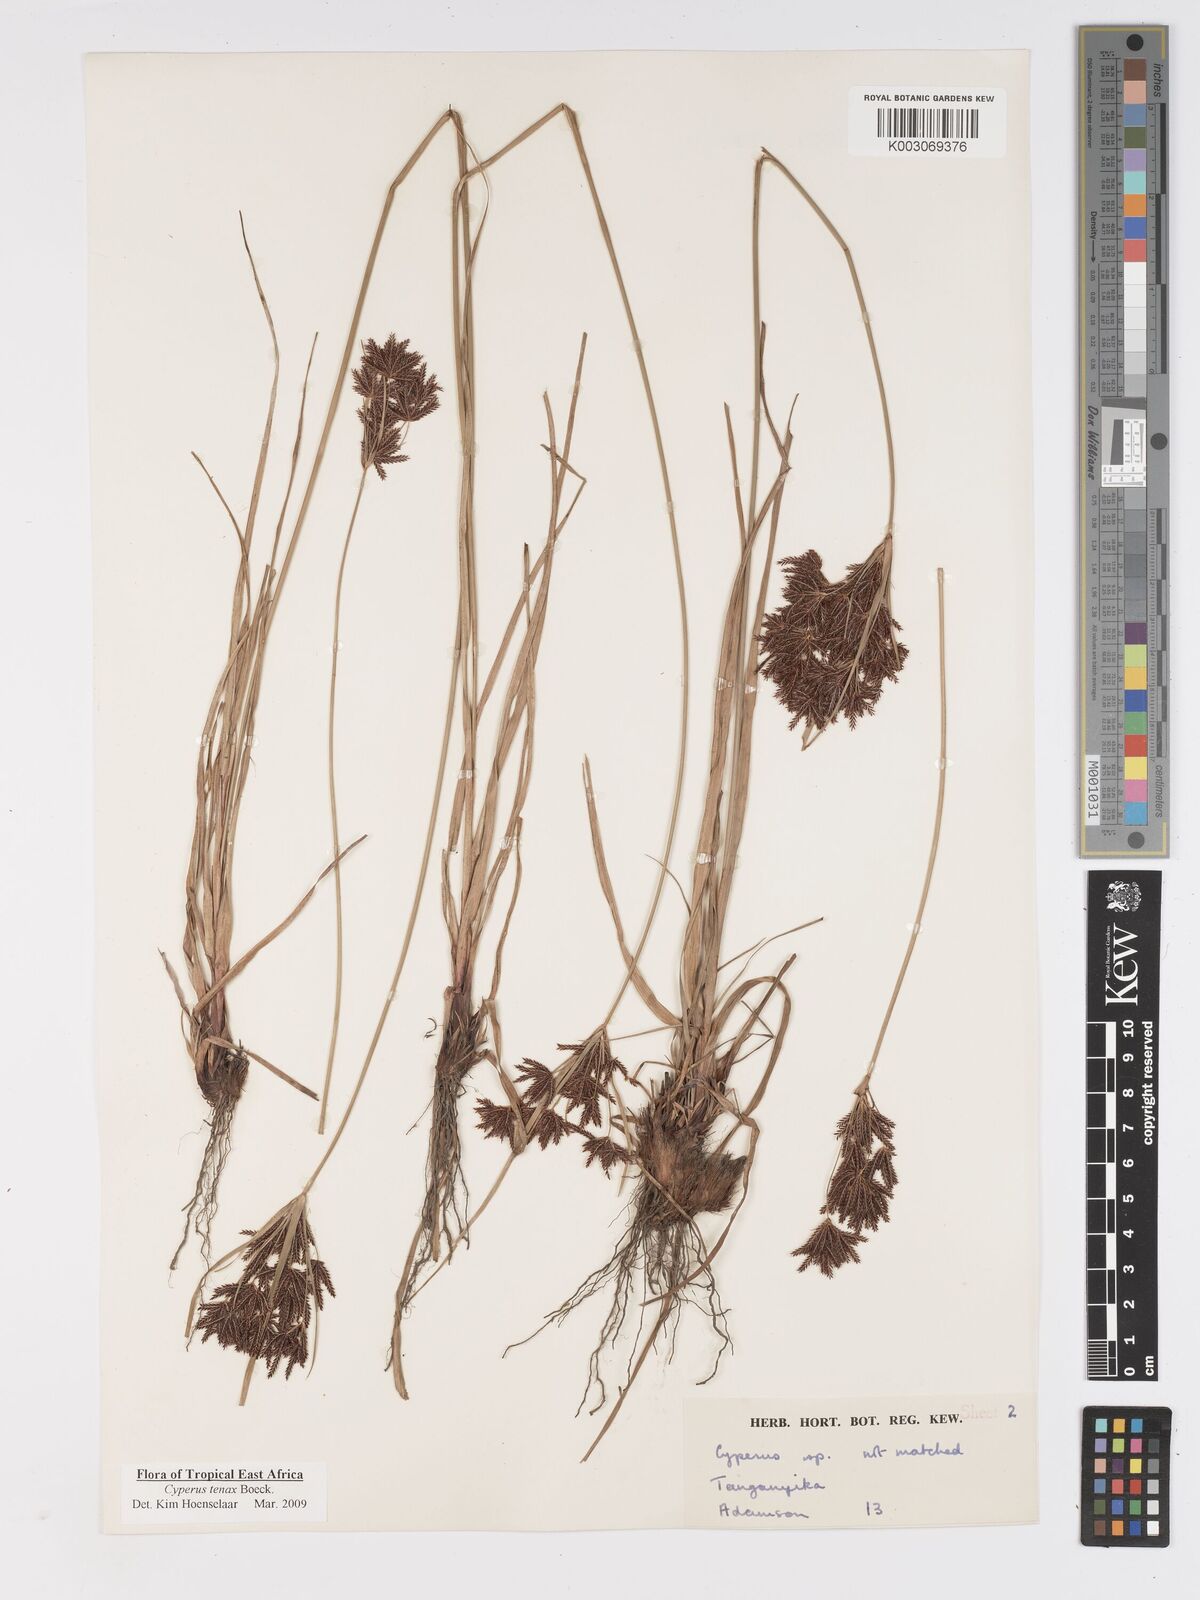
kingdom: Plantae
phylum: Tracheophyta
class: Liliopsida
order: Poales
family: Cyperaceae
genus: Cyperus
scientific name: Cyperus tenax
